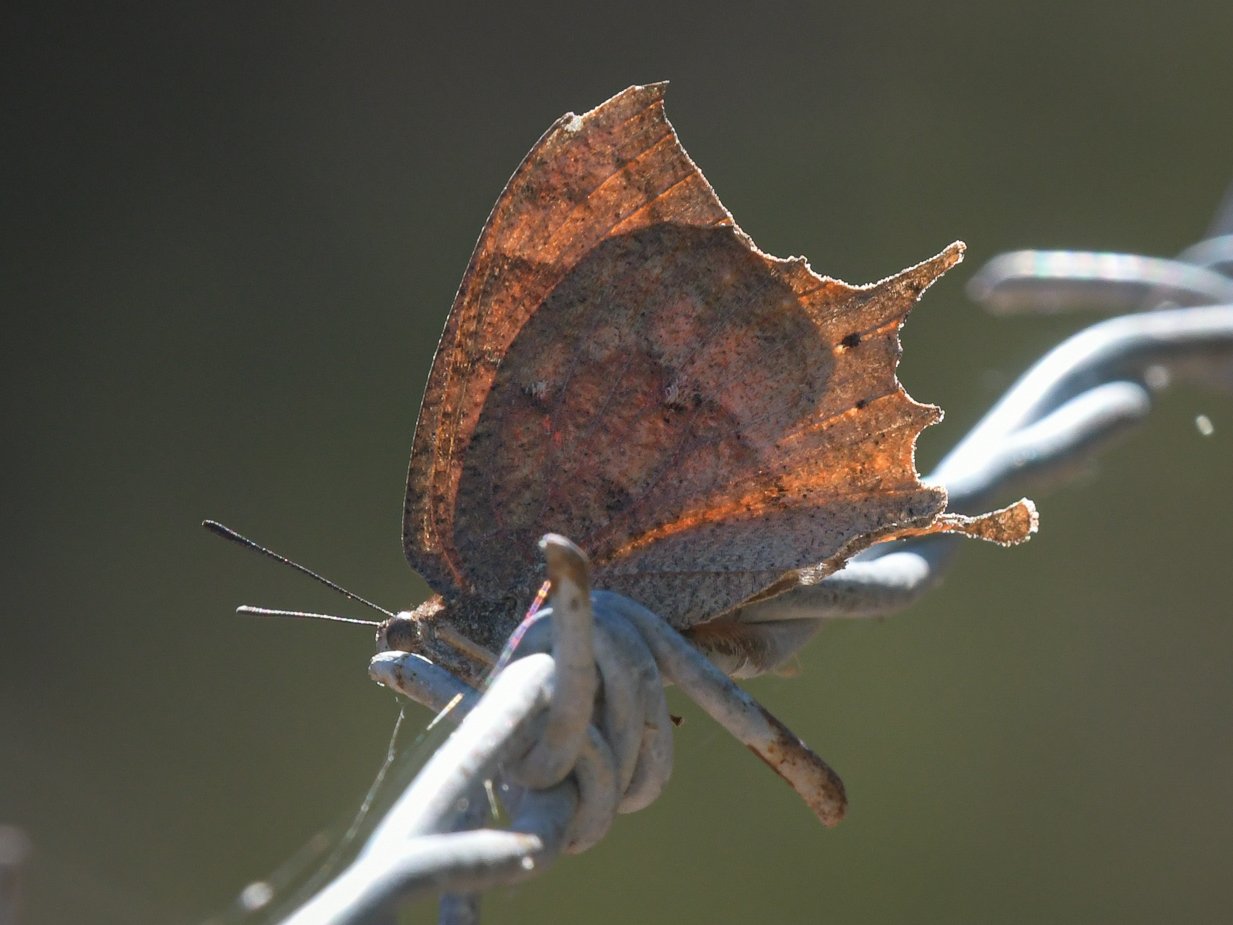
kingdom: Animalia
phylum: Arthropoda
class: Insecta
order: Lepidoptera
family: Nymphalidae
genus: Anaea
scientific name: Anaea aidea
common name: Tropical Leafwing
